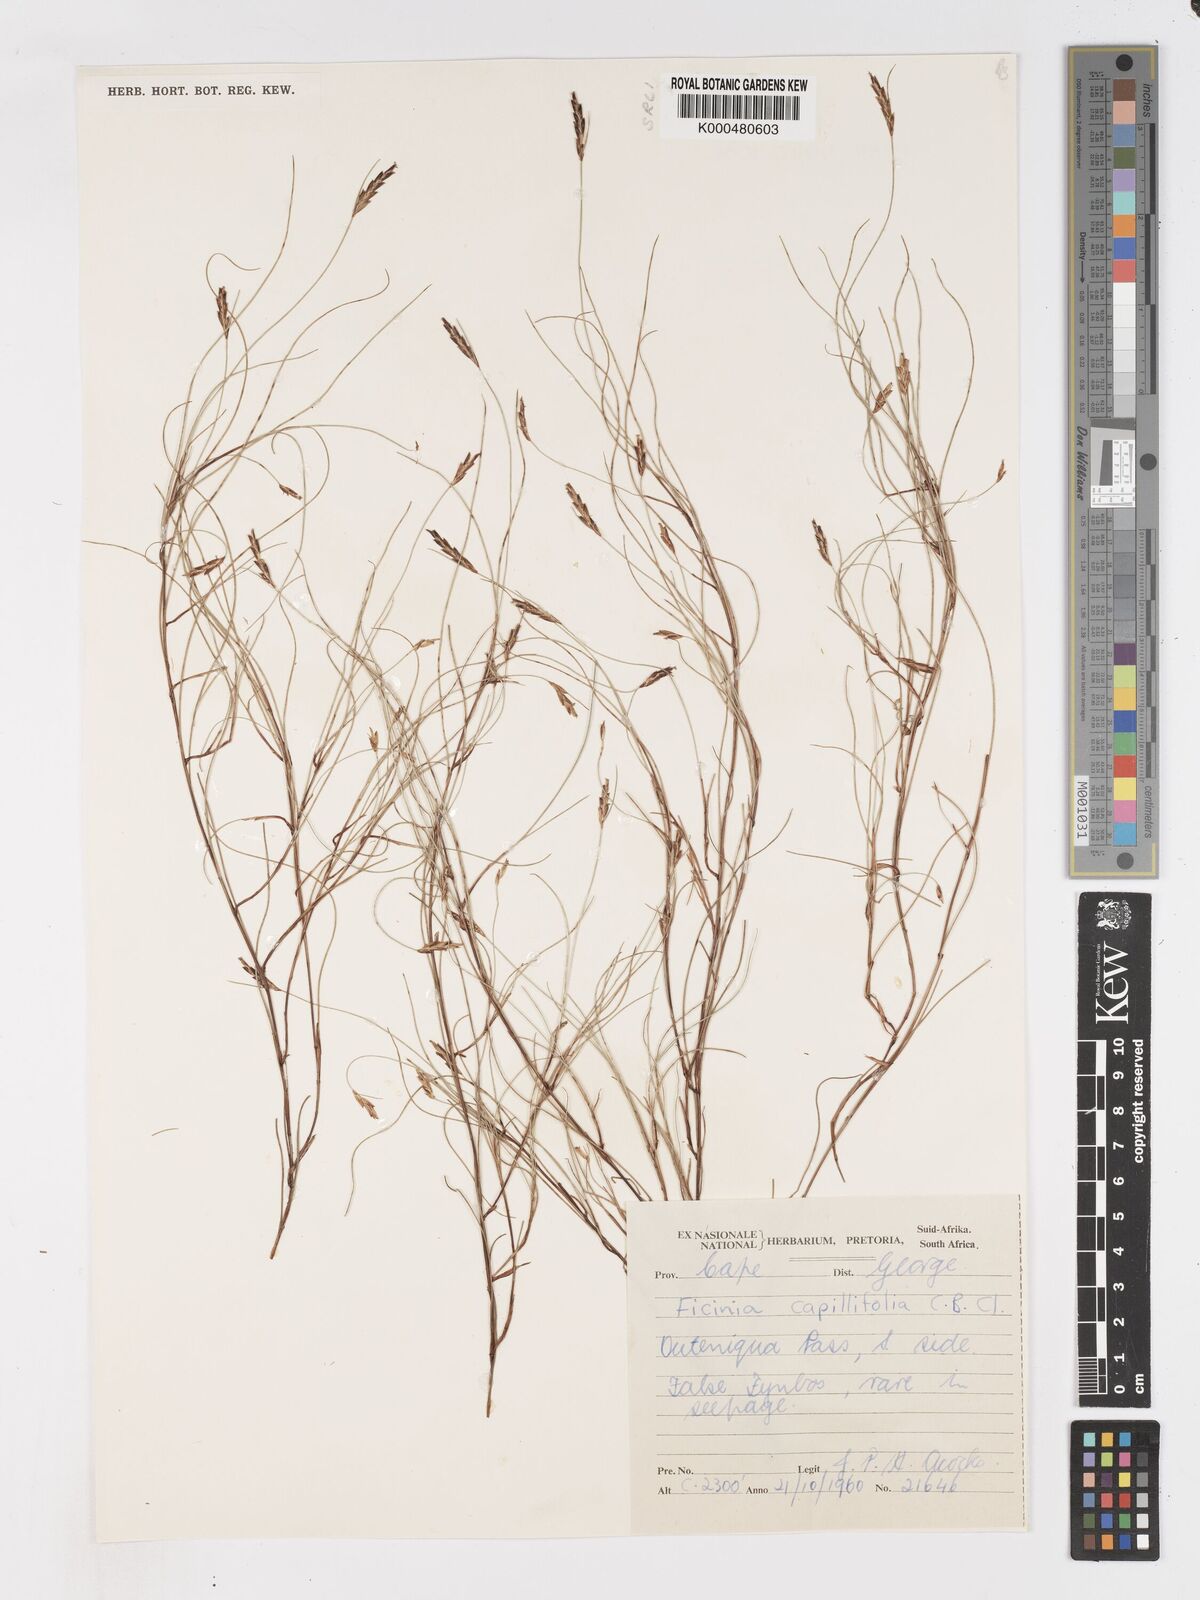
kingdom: Plantae
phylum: Tracheophyta
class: Liliopsida
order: Poales
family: Cyperaceae
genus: Ficinia
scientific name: Ficinia capillifolia
